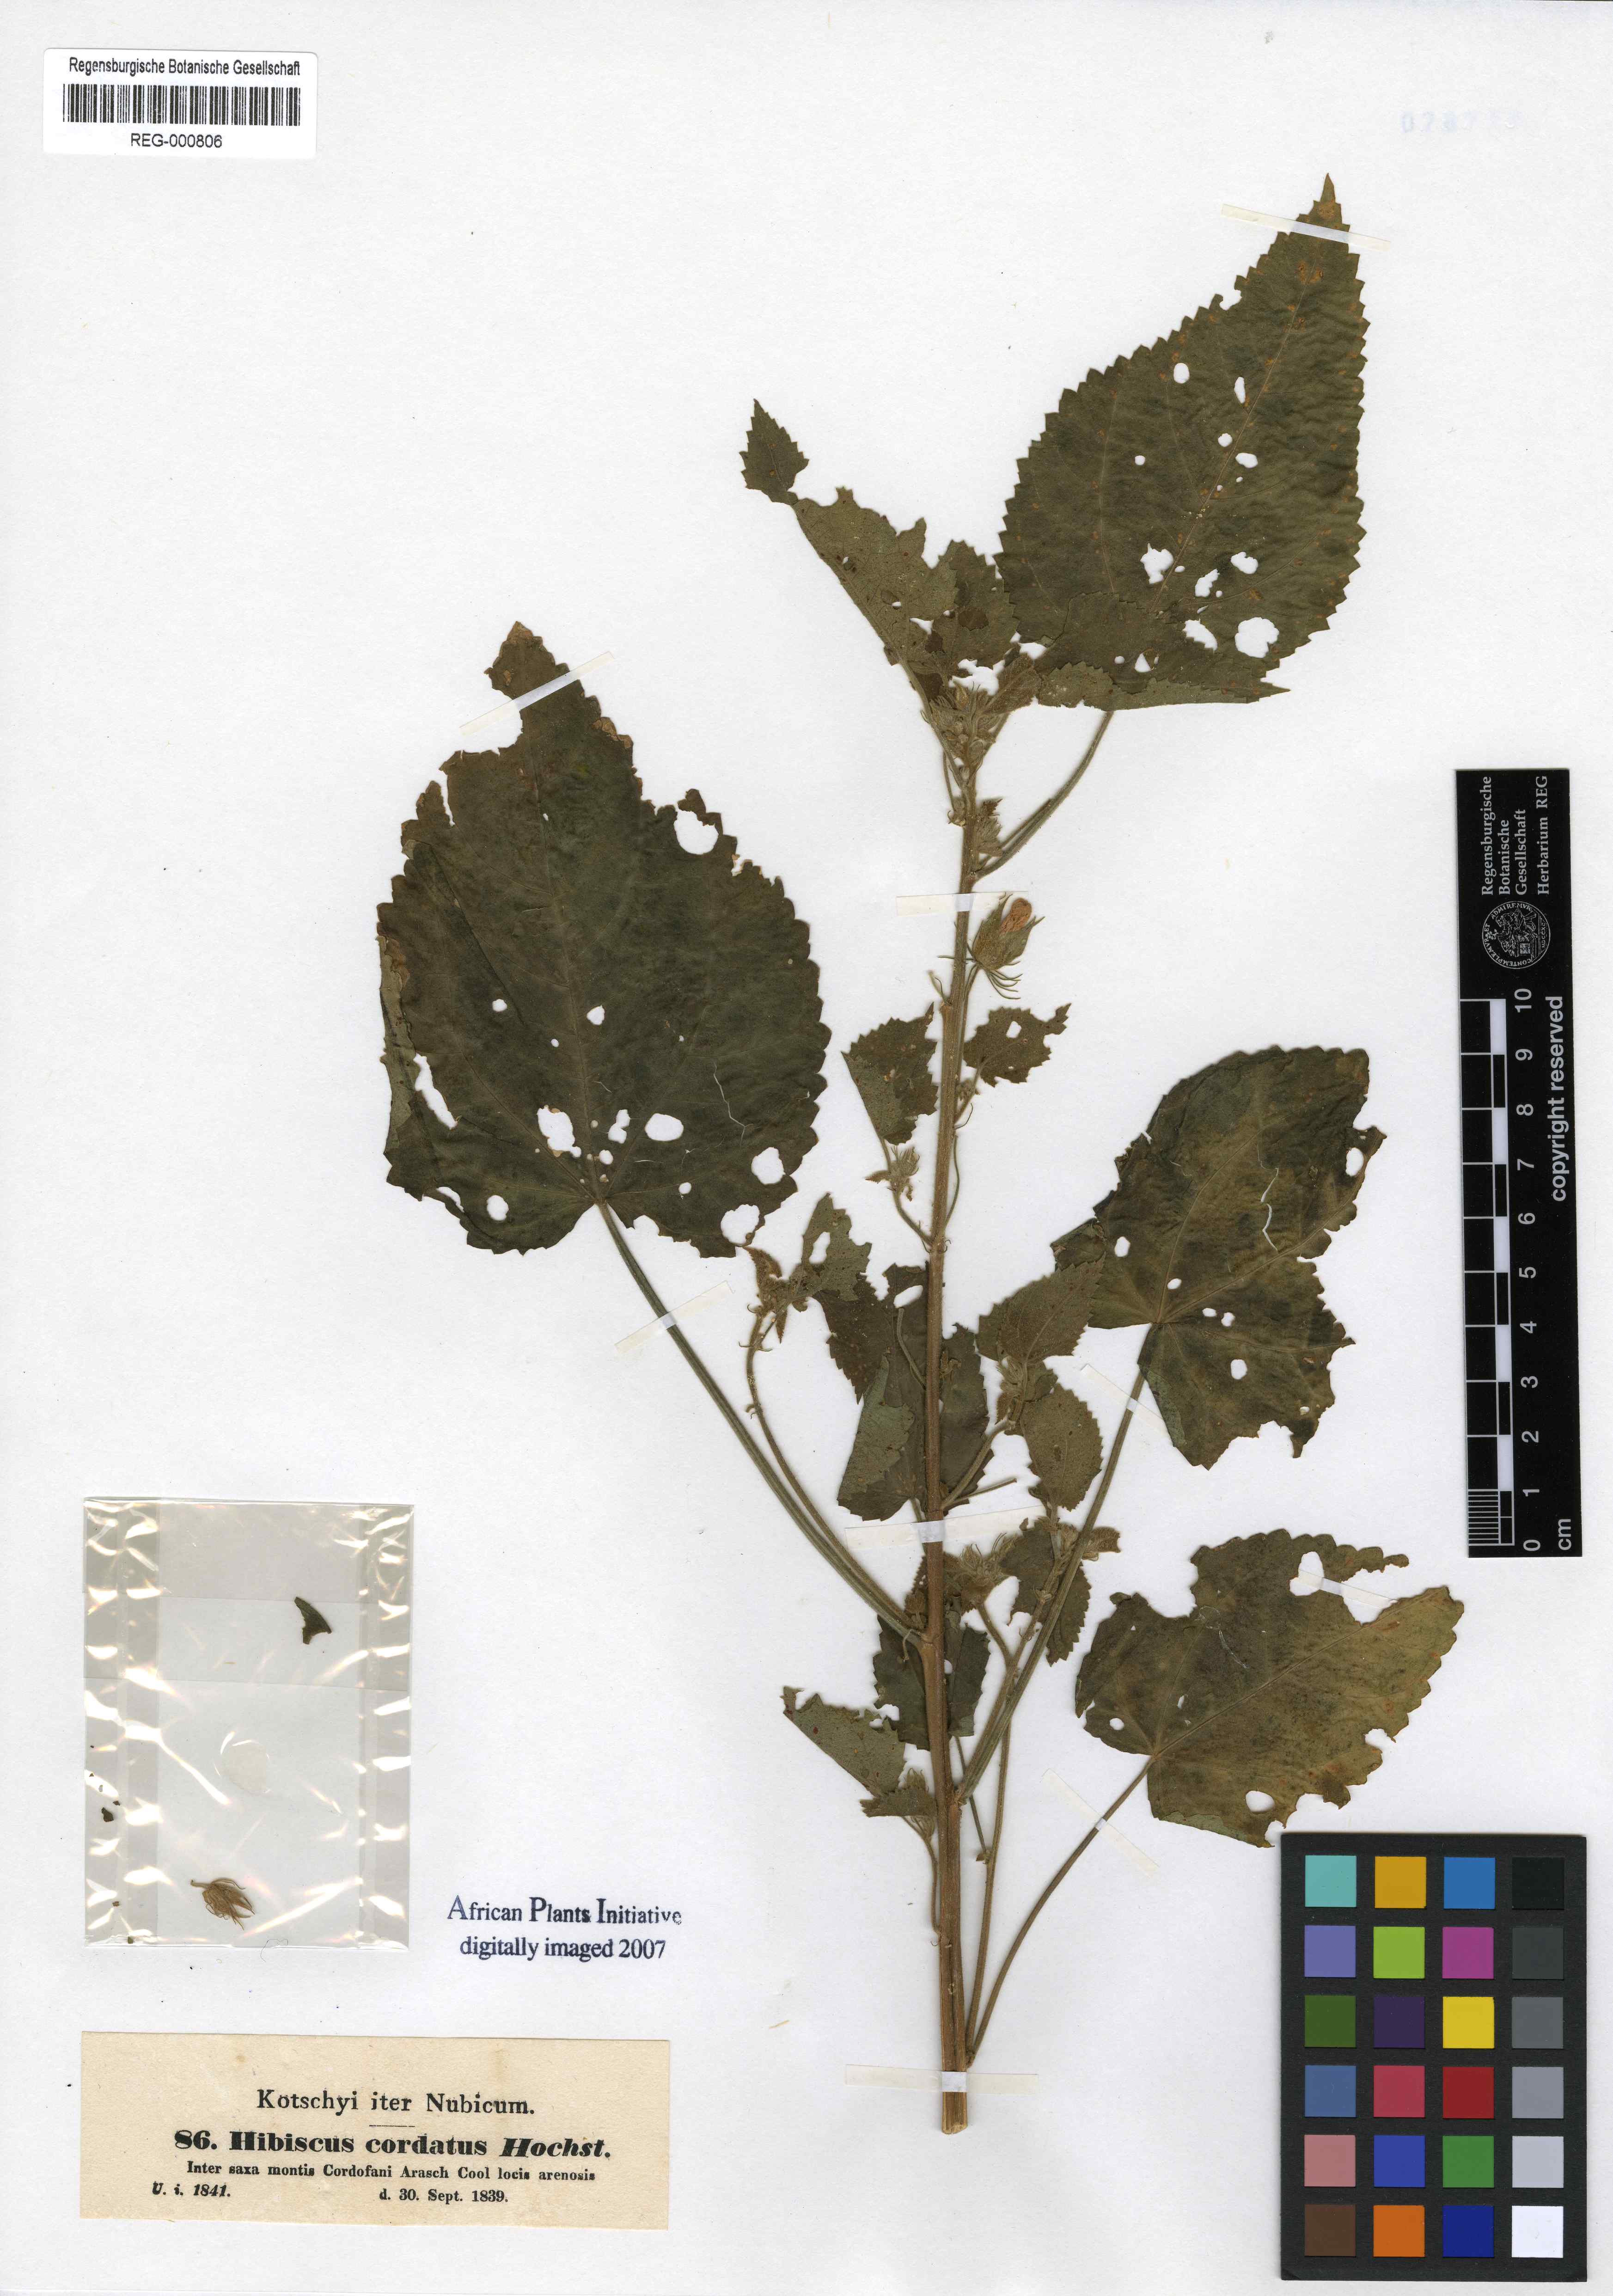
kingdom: Plantae
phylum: Tracheophyta
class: Magnoliopsida
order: Malvales
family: Malvaceae
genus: Hibiscus
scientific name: Hibiscus rhabdotospermus
